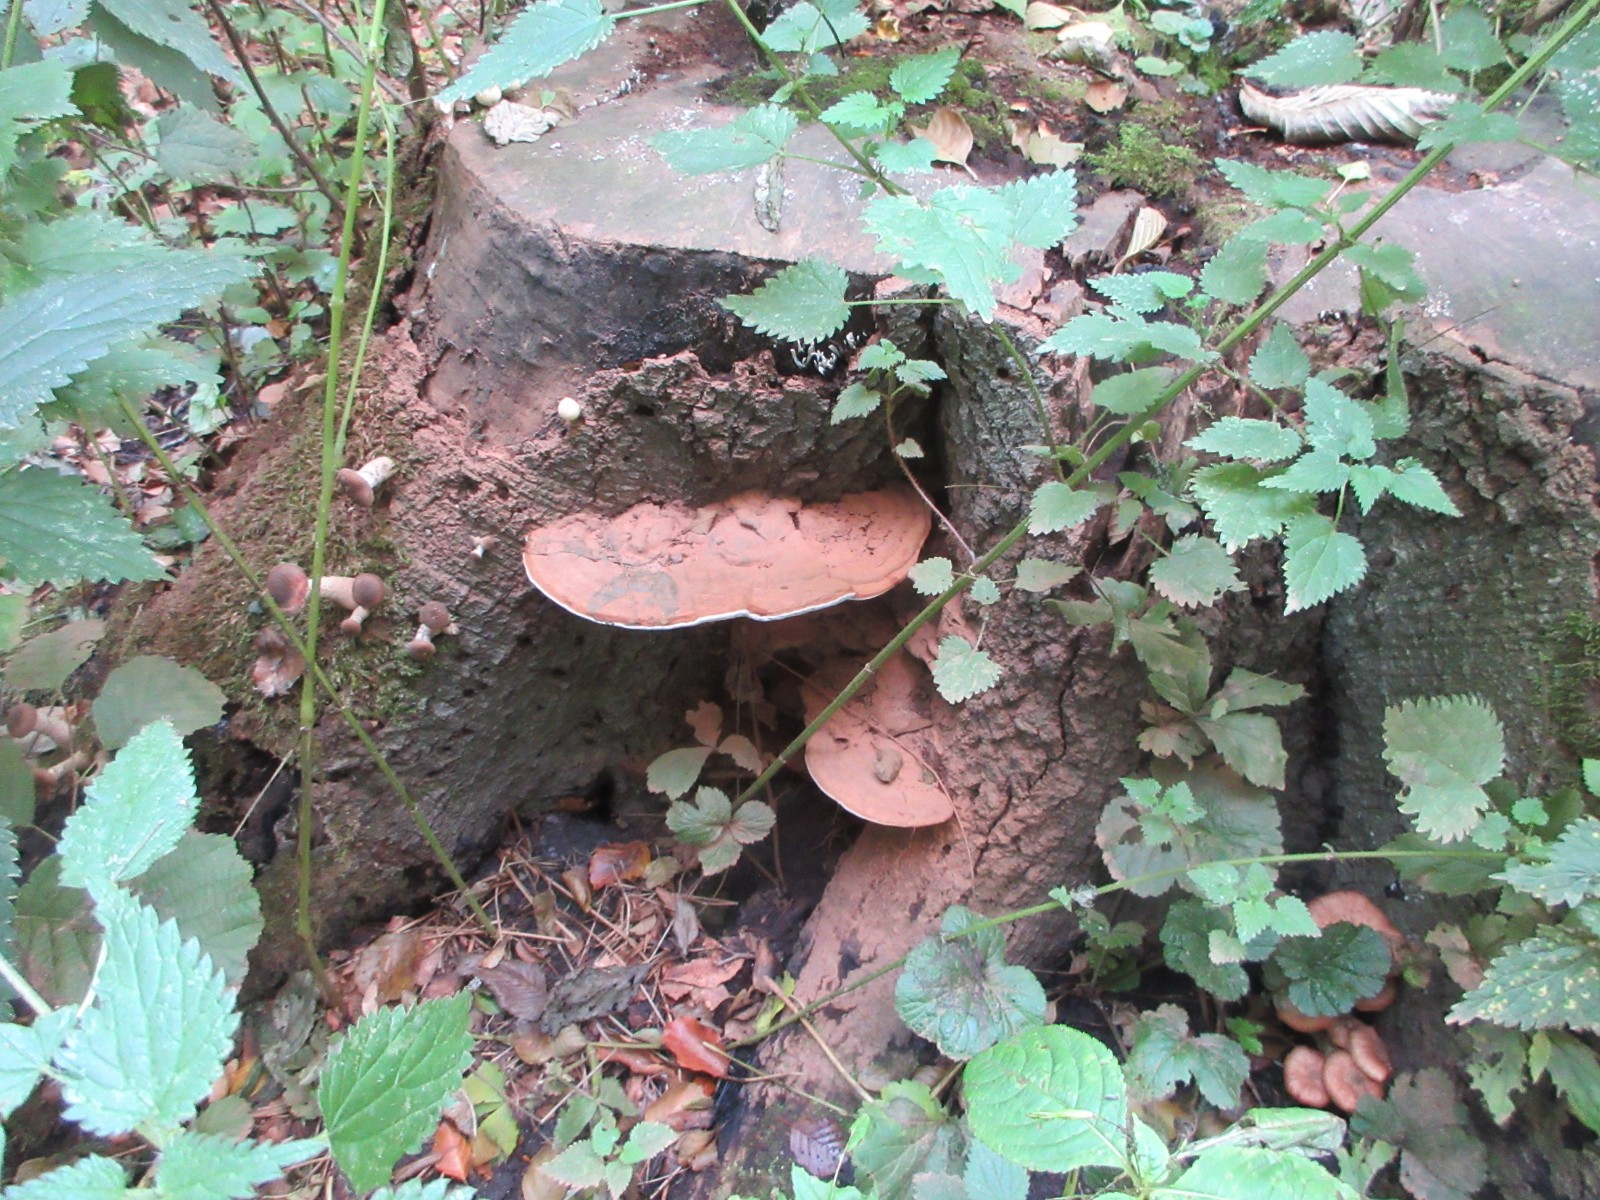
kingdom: Fungi
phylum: Basidiomycota
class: Agaricomycetes
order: Polyporales
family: Polyporaceae
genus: Ganoderma
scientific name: Ganoderma applanatum
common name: flad lakporesvamp
